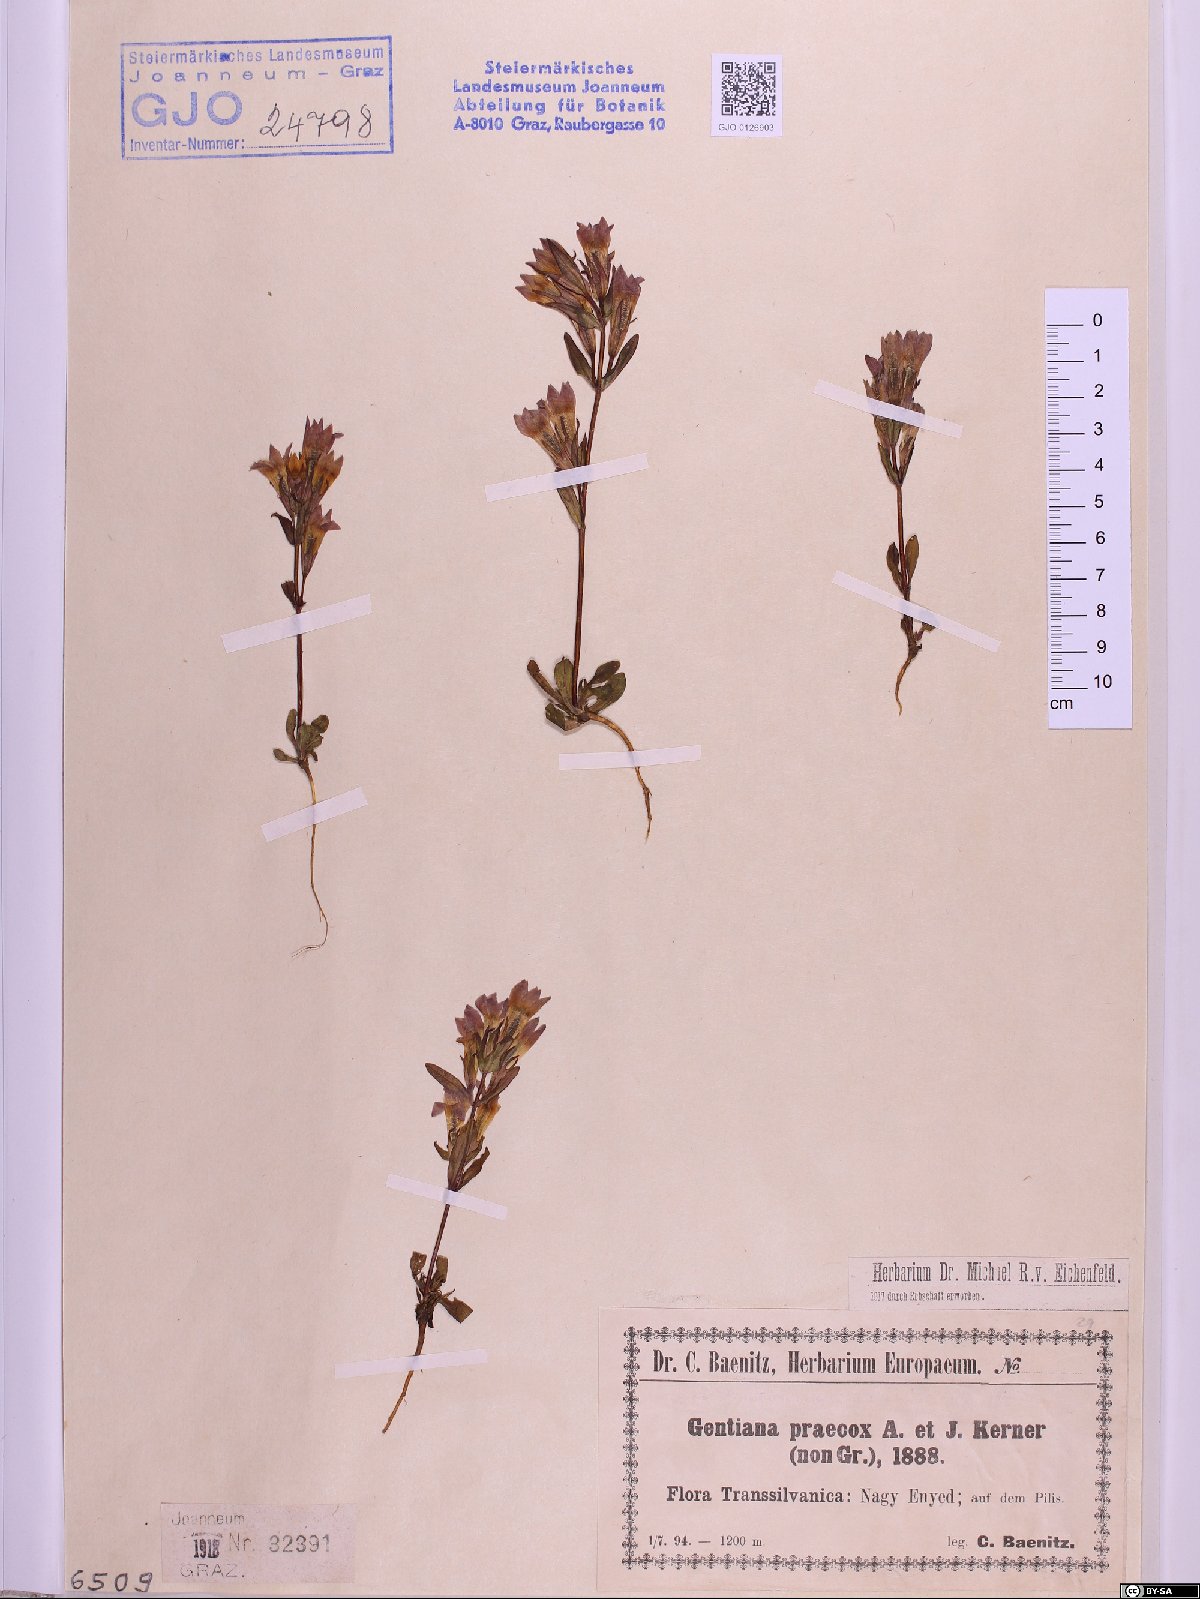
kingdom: Plantae
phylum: Tracheophyta
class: Magnoliopsida
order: Gentianales
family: Gentianaceae
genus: Gentianella
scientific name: Gentianella praecox
